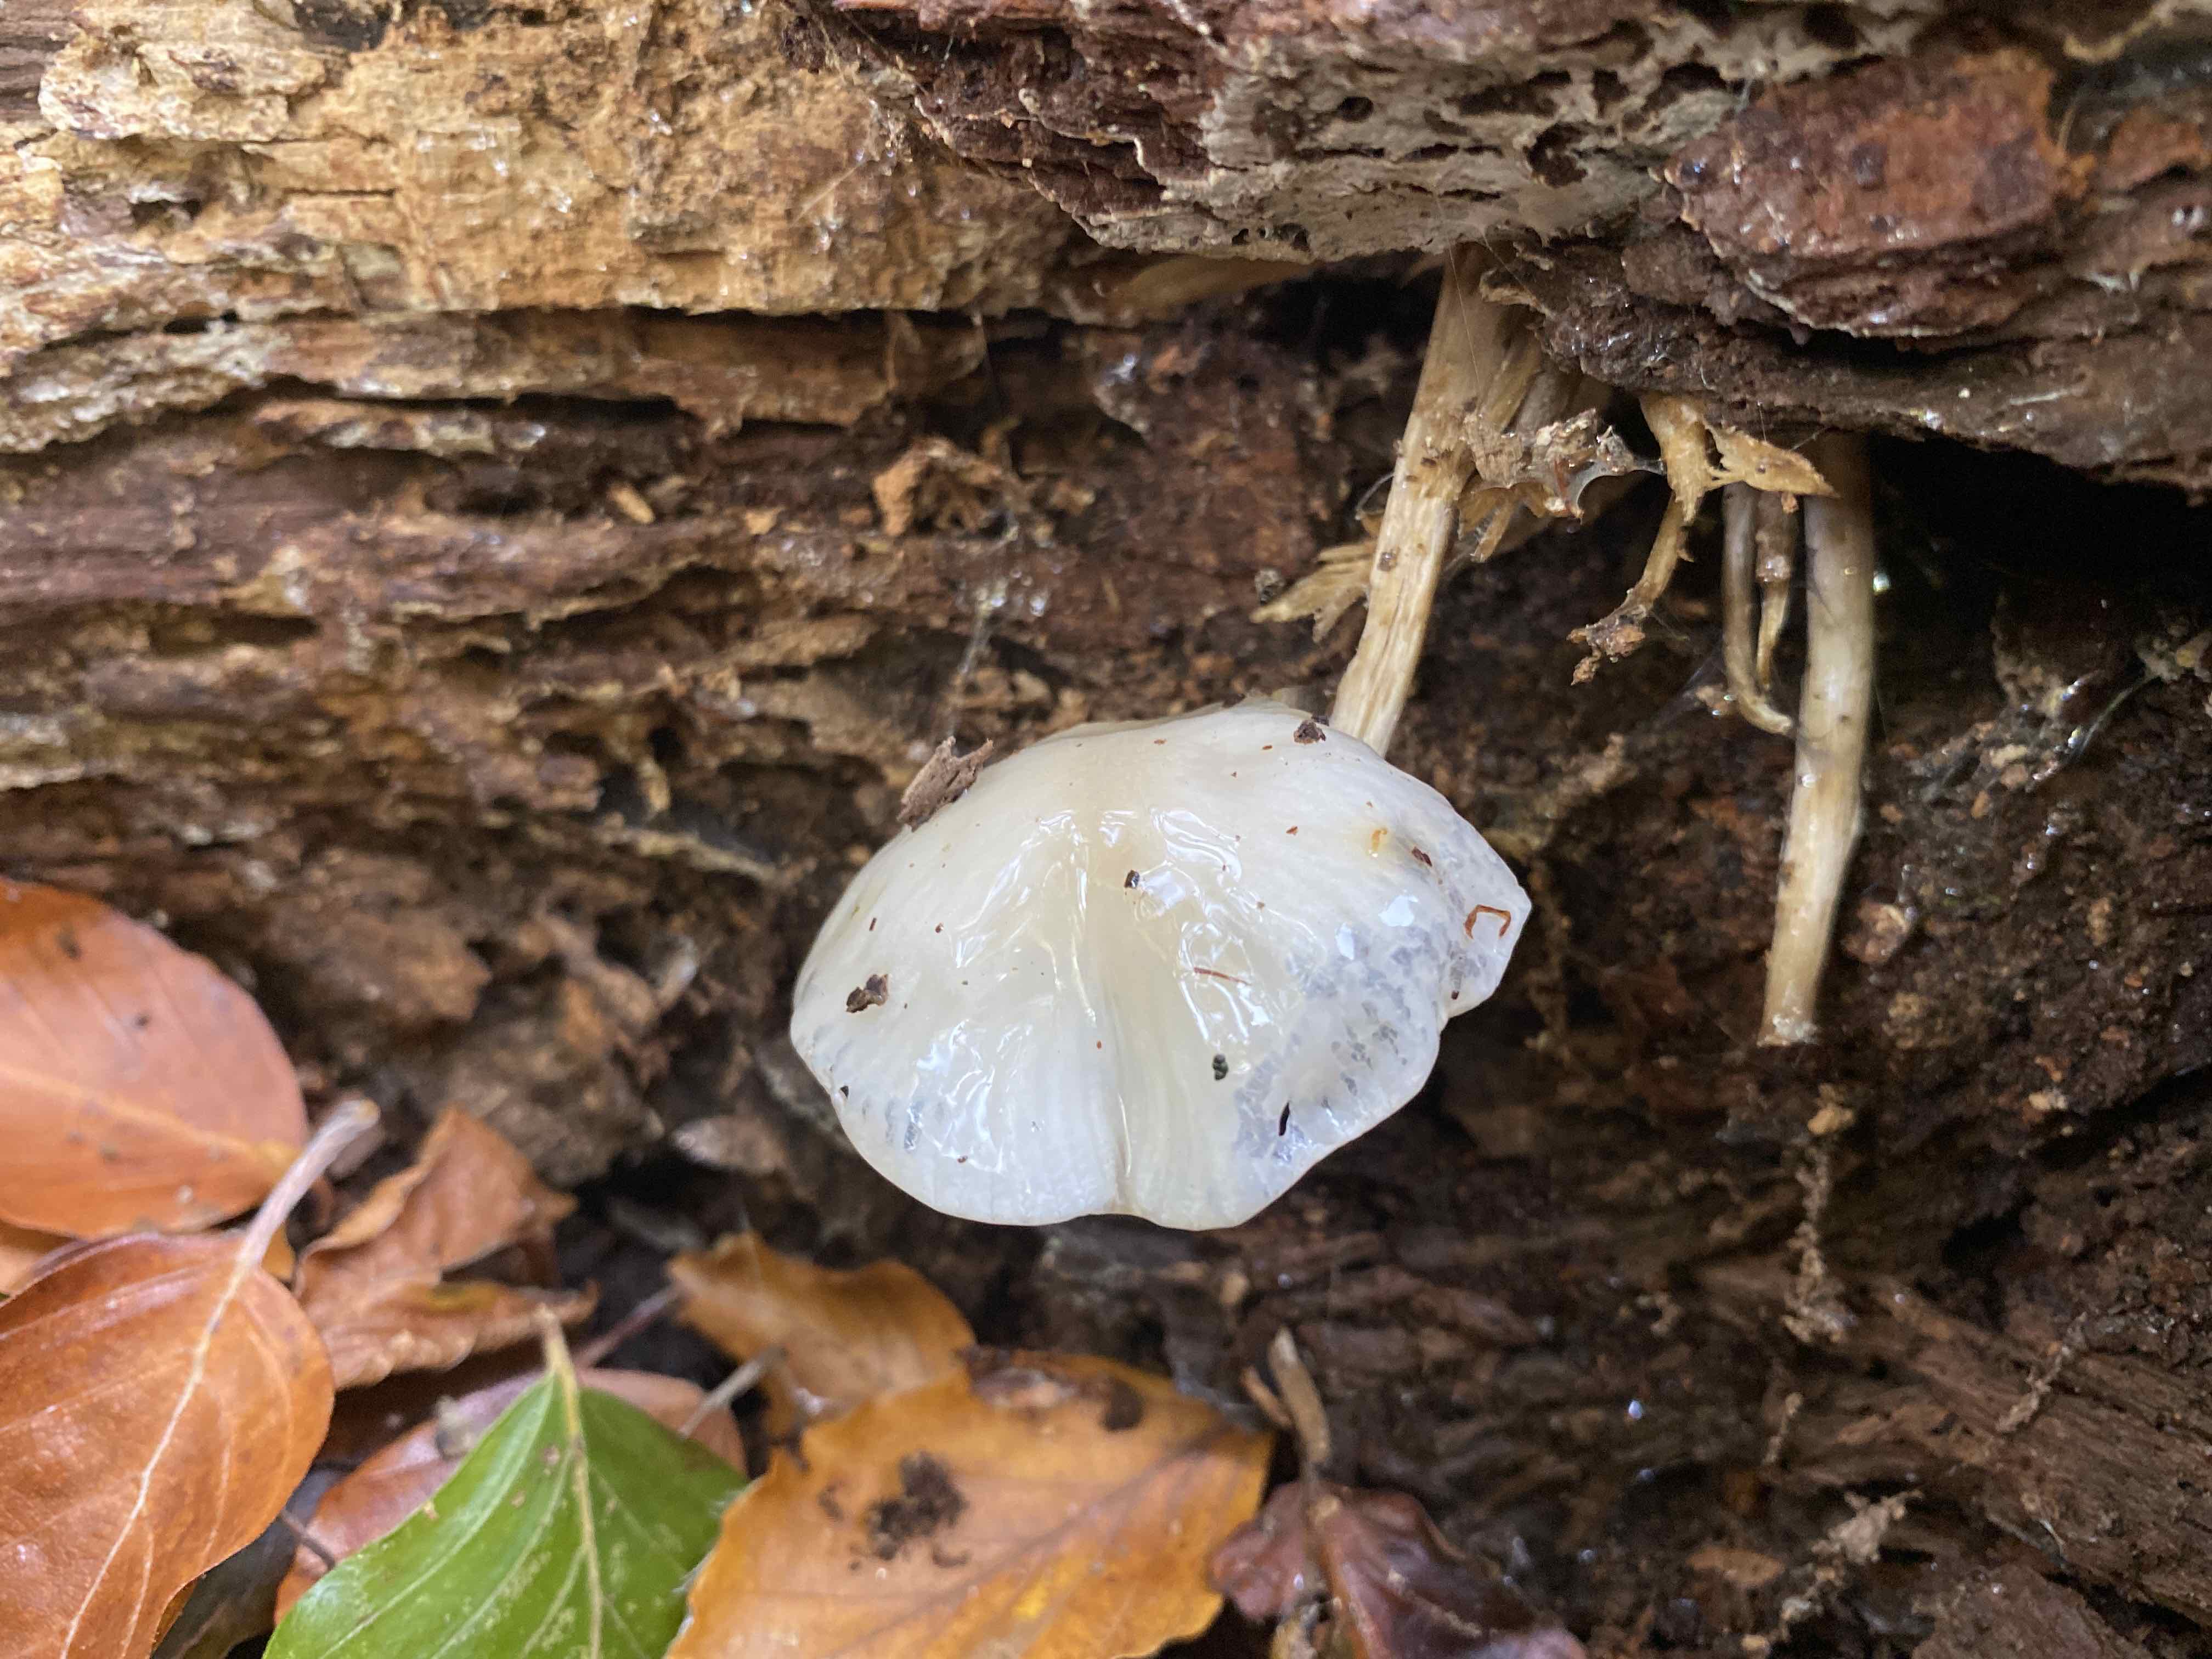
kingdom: Fungi
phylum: Basidiomycota
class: Agaricomycetes
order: Agaricales
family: Physalacriaceae
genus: Mucidula
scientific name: Mucidula mucida
